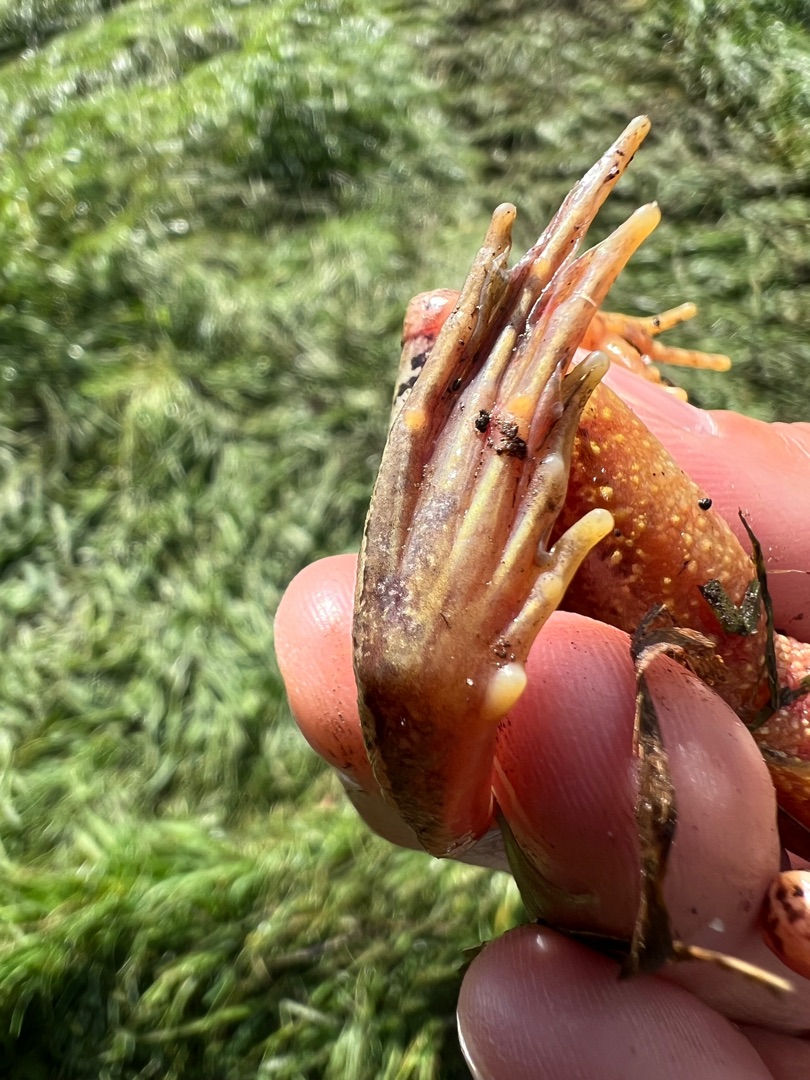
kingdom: Animalia
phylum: Chordata
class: Amphibia
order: Anura
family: Ranidae
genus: Rana
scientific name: Rana temporaria
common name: Butsnudet frø
